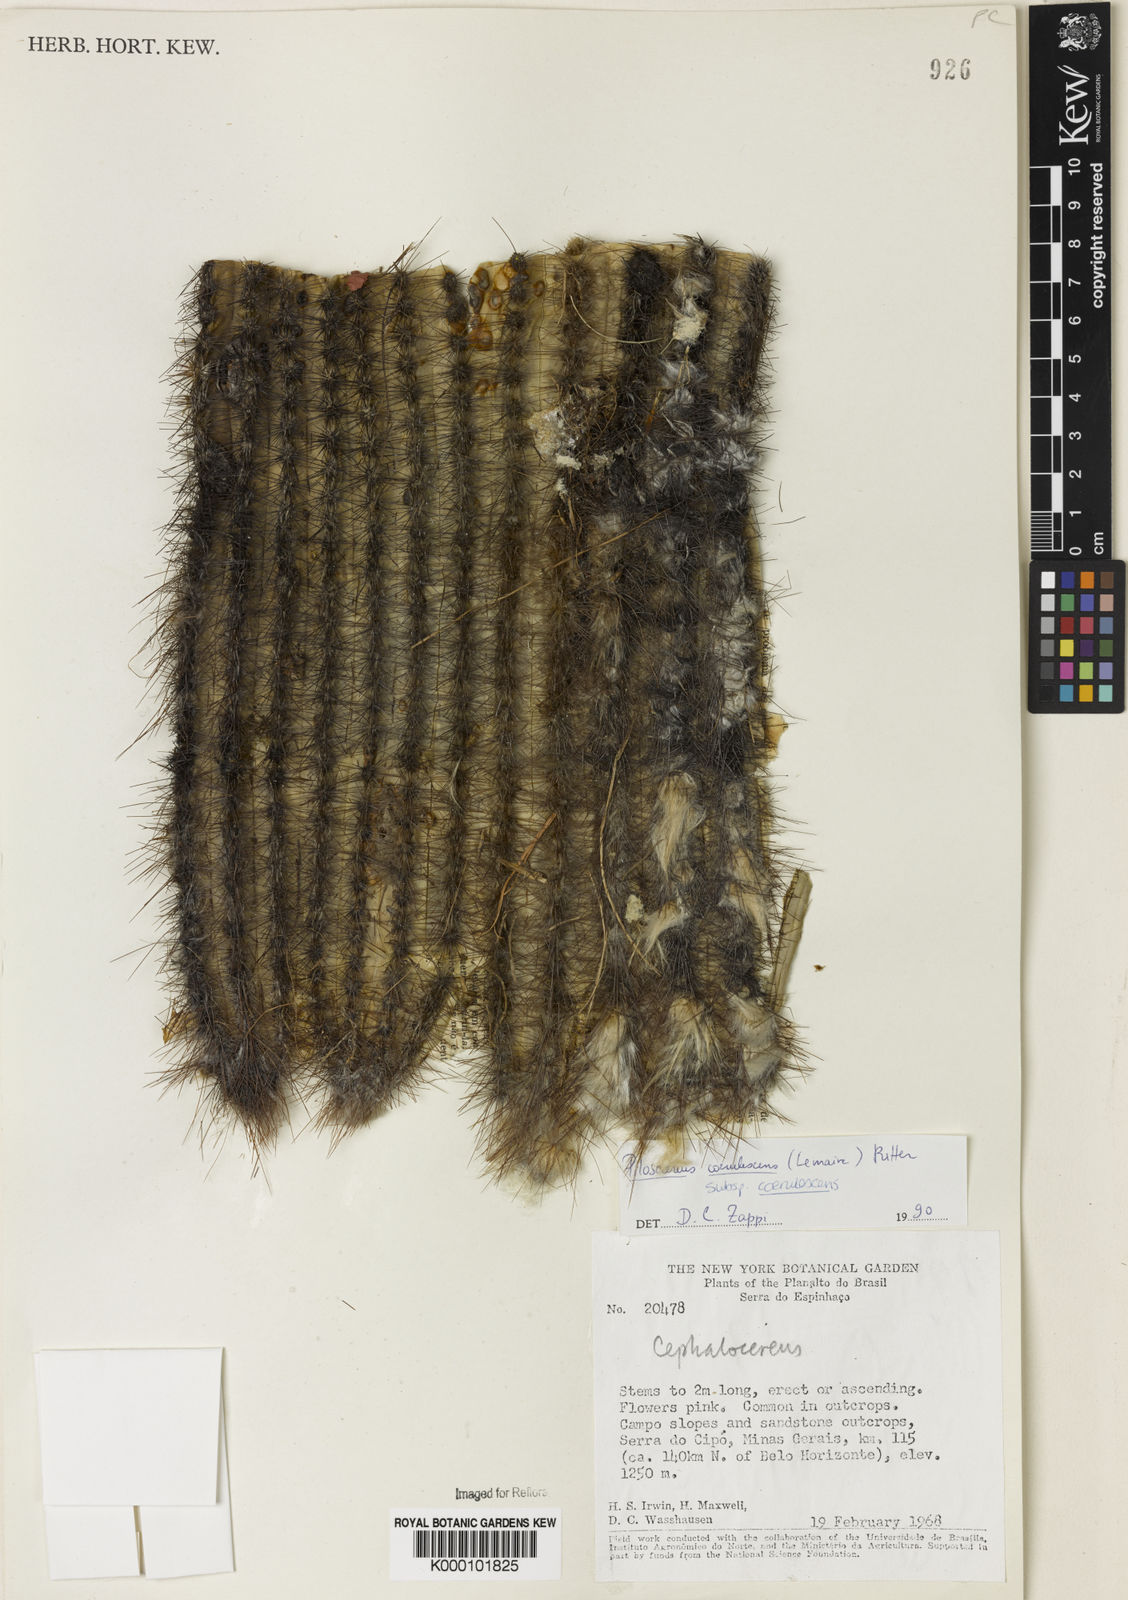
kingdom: Plantae
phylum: Tracheophyta
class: Magnoliopsida
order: Caryophyllales
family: Cactaceae
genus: Pilosocereus
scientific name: Pilosocereus aurisetus
